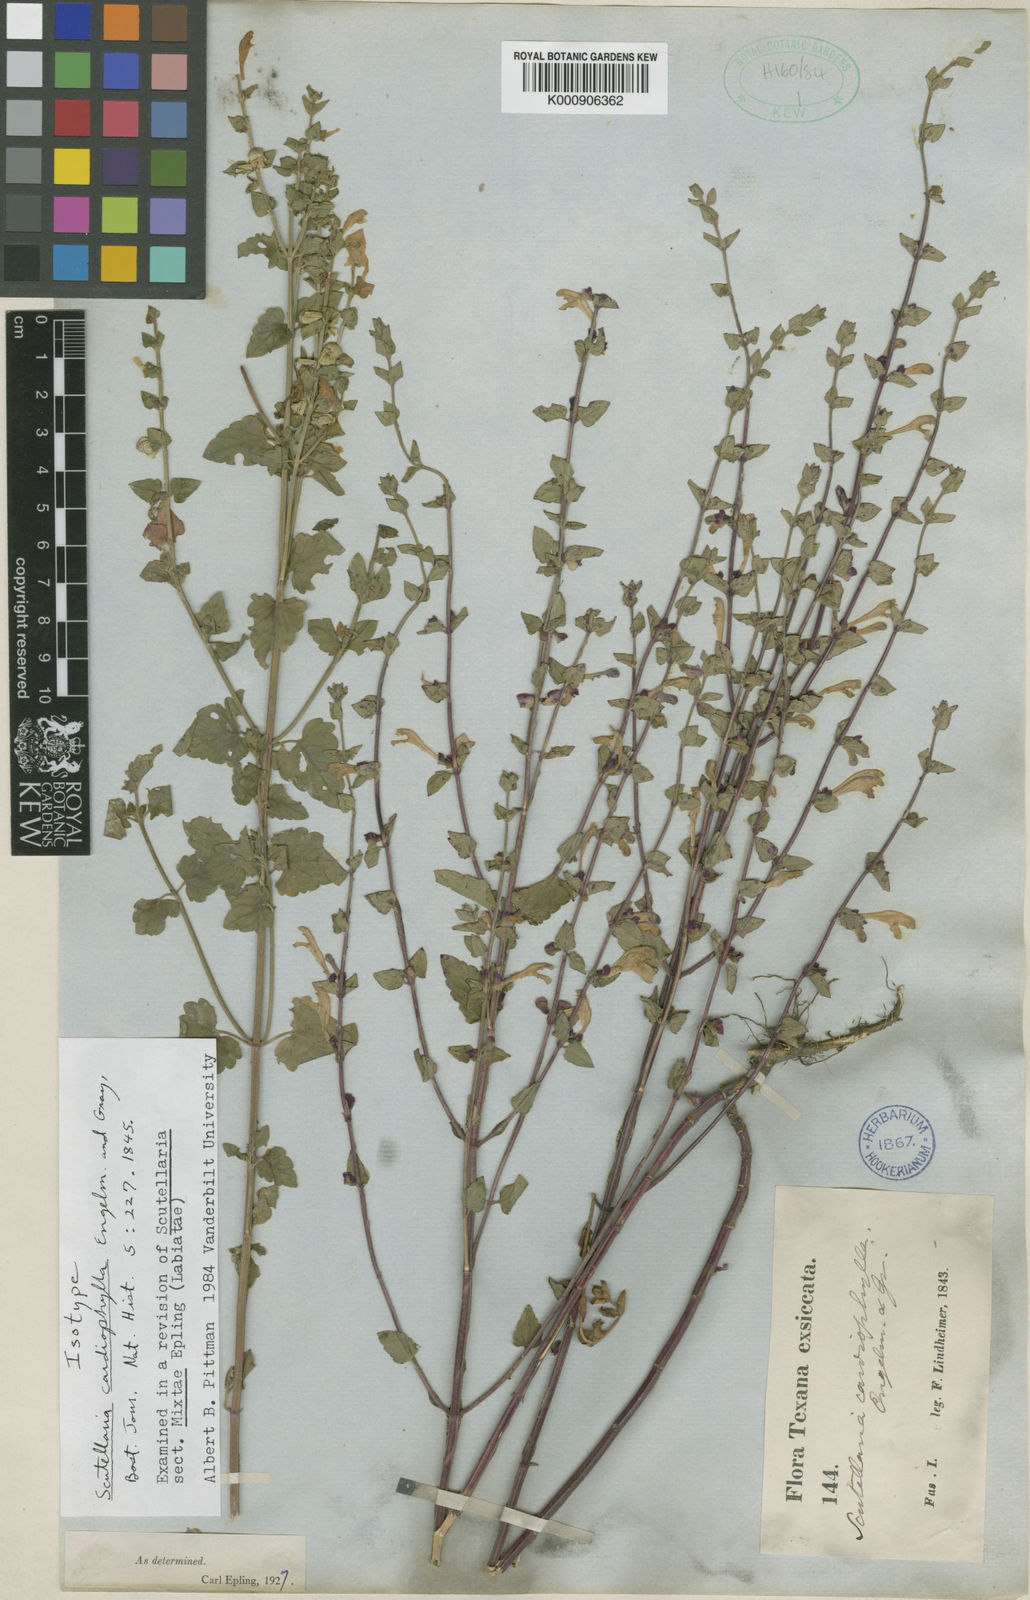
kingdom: Plantae
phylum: Tracheophyta
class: Magnoliopsida
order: Lamiales
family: Lamiaceae
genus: Scutellaria
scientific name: Scutellaria cardiophylla
